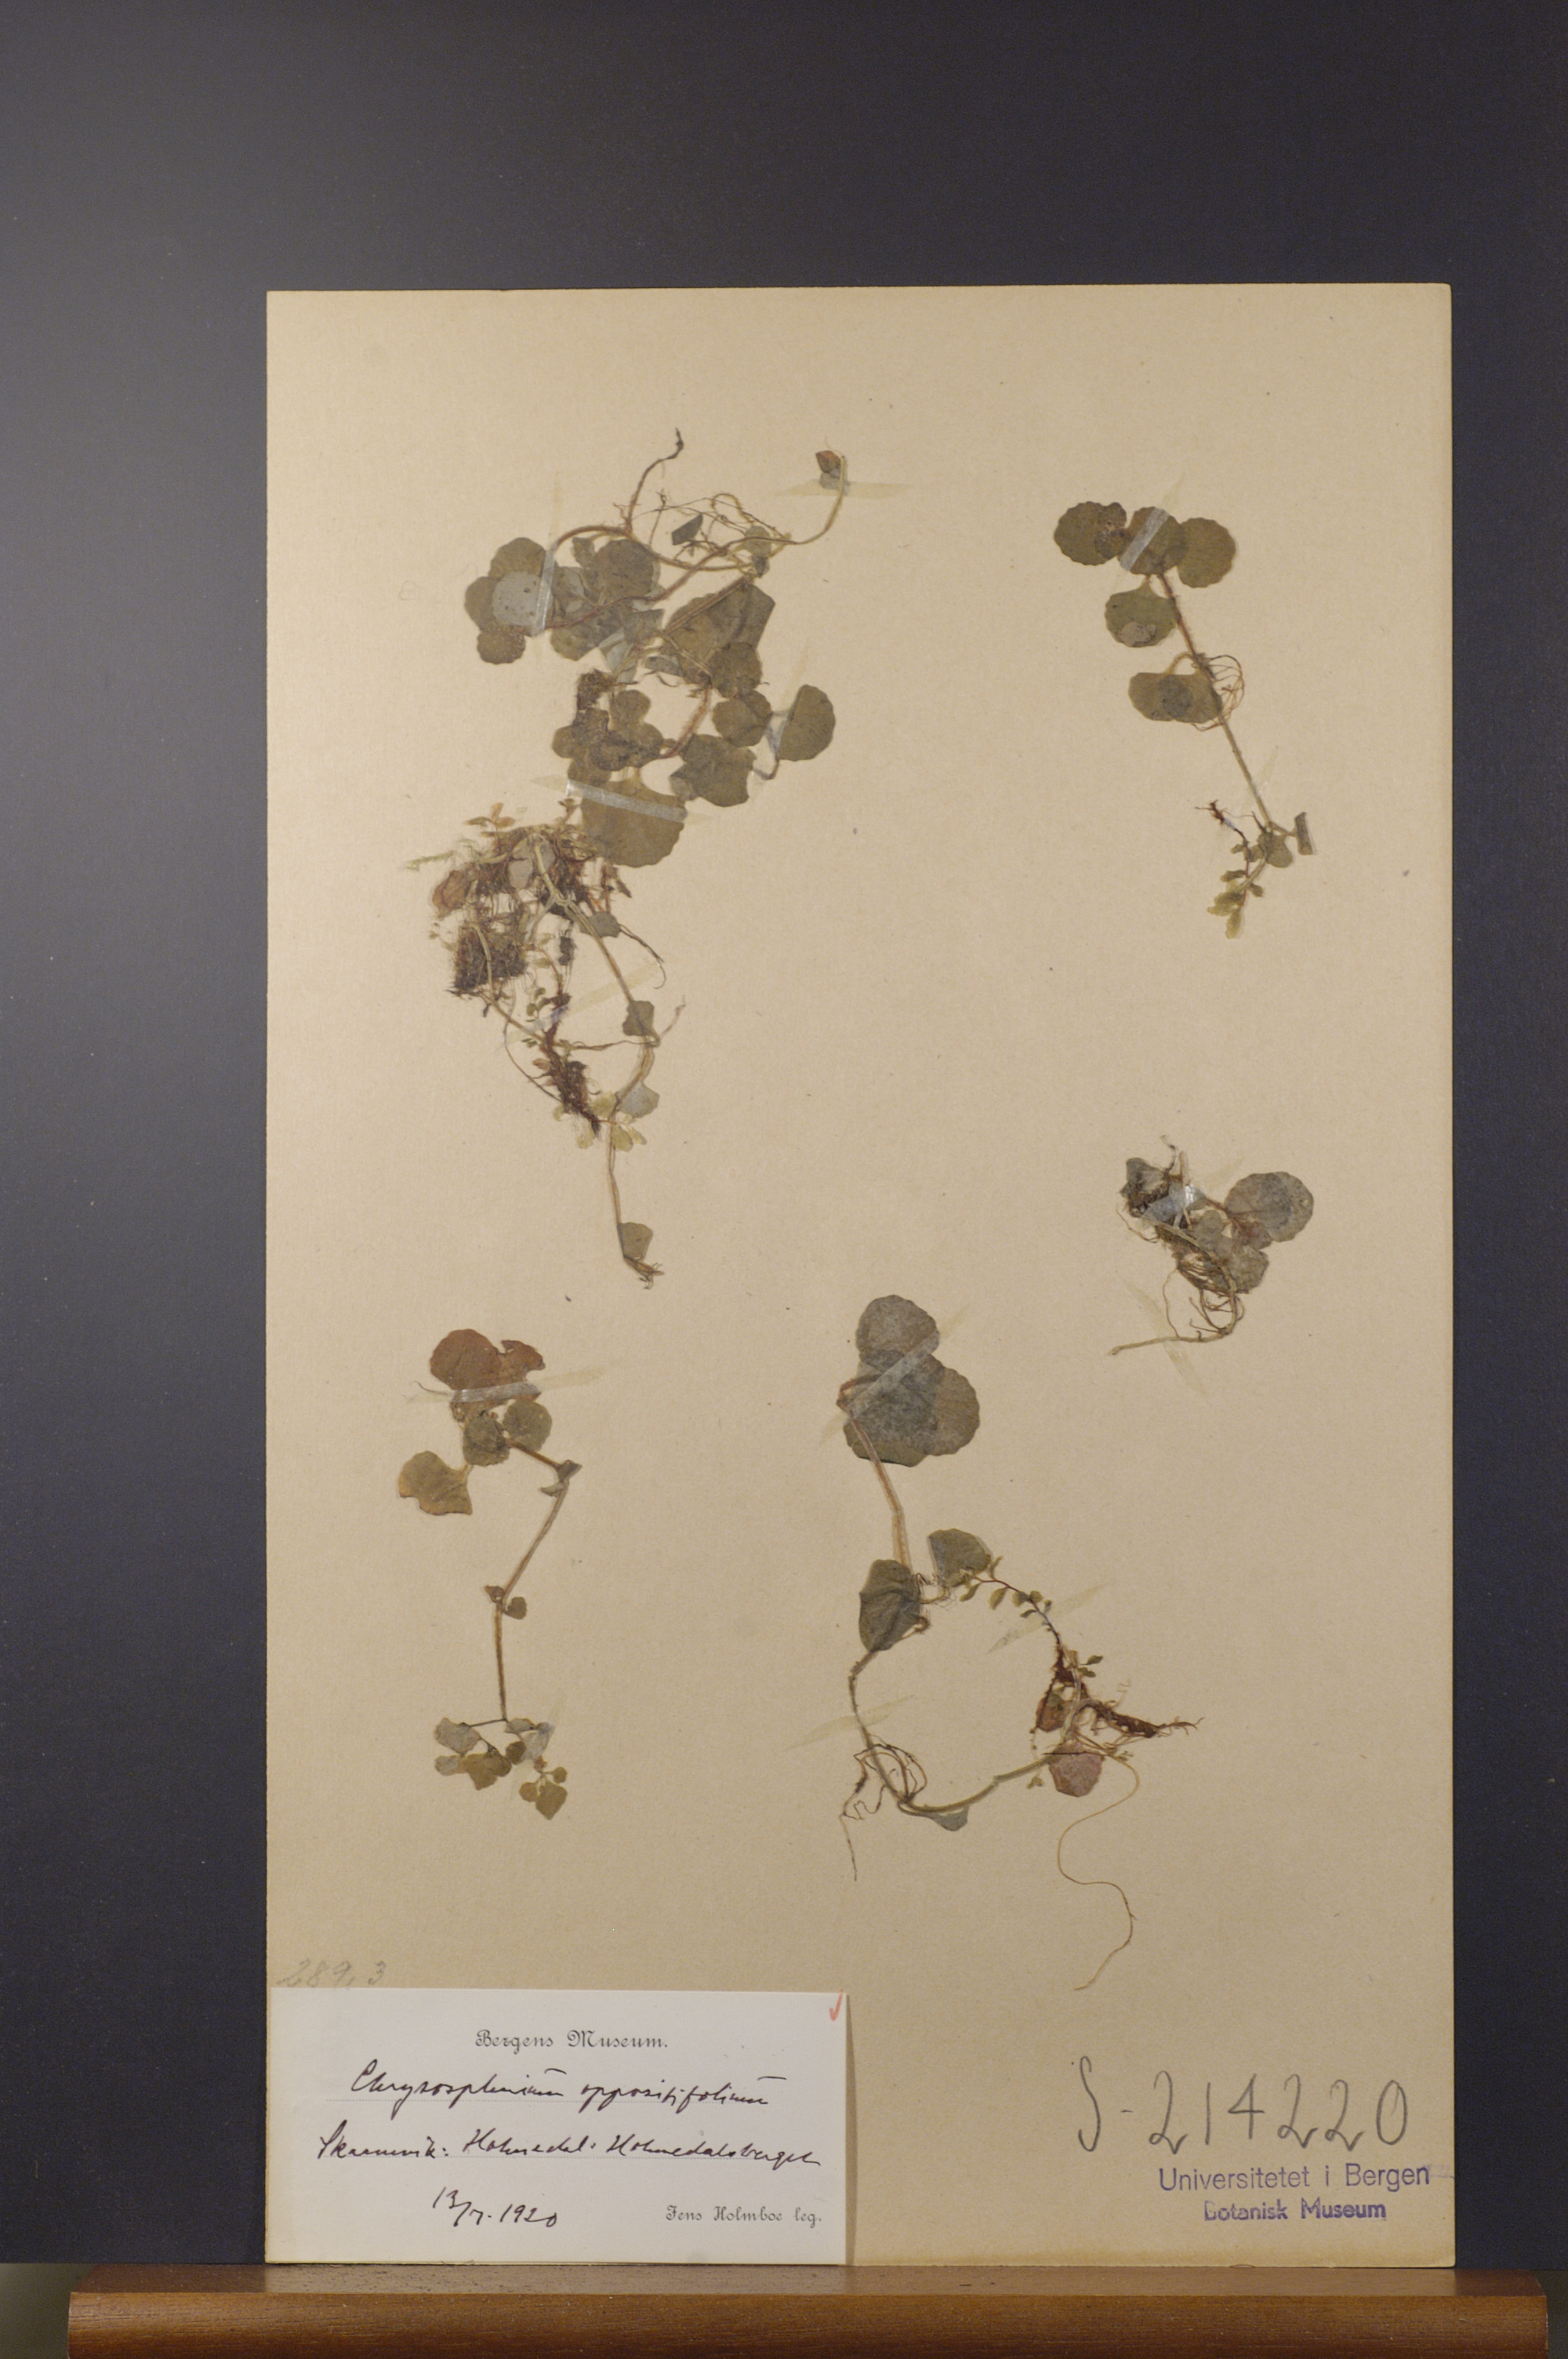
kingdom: Plantae
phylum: Tracheophyta
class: Magnoliopsida
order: Saxifragales
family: Saxifragaceae
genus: Chrysosplenium
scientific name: Chrysosplenium oppositifolium
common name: Opposite-leaved golden-saxifrage
